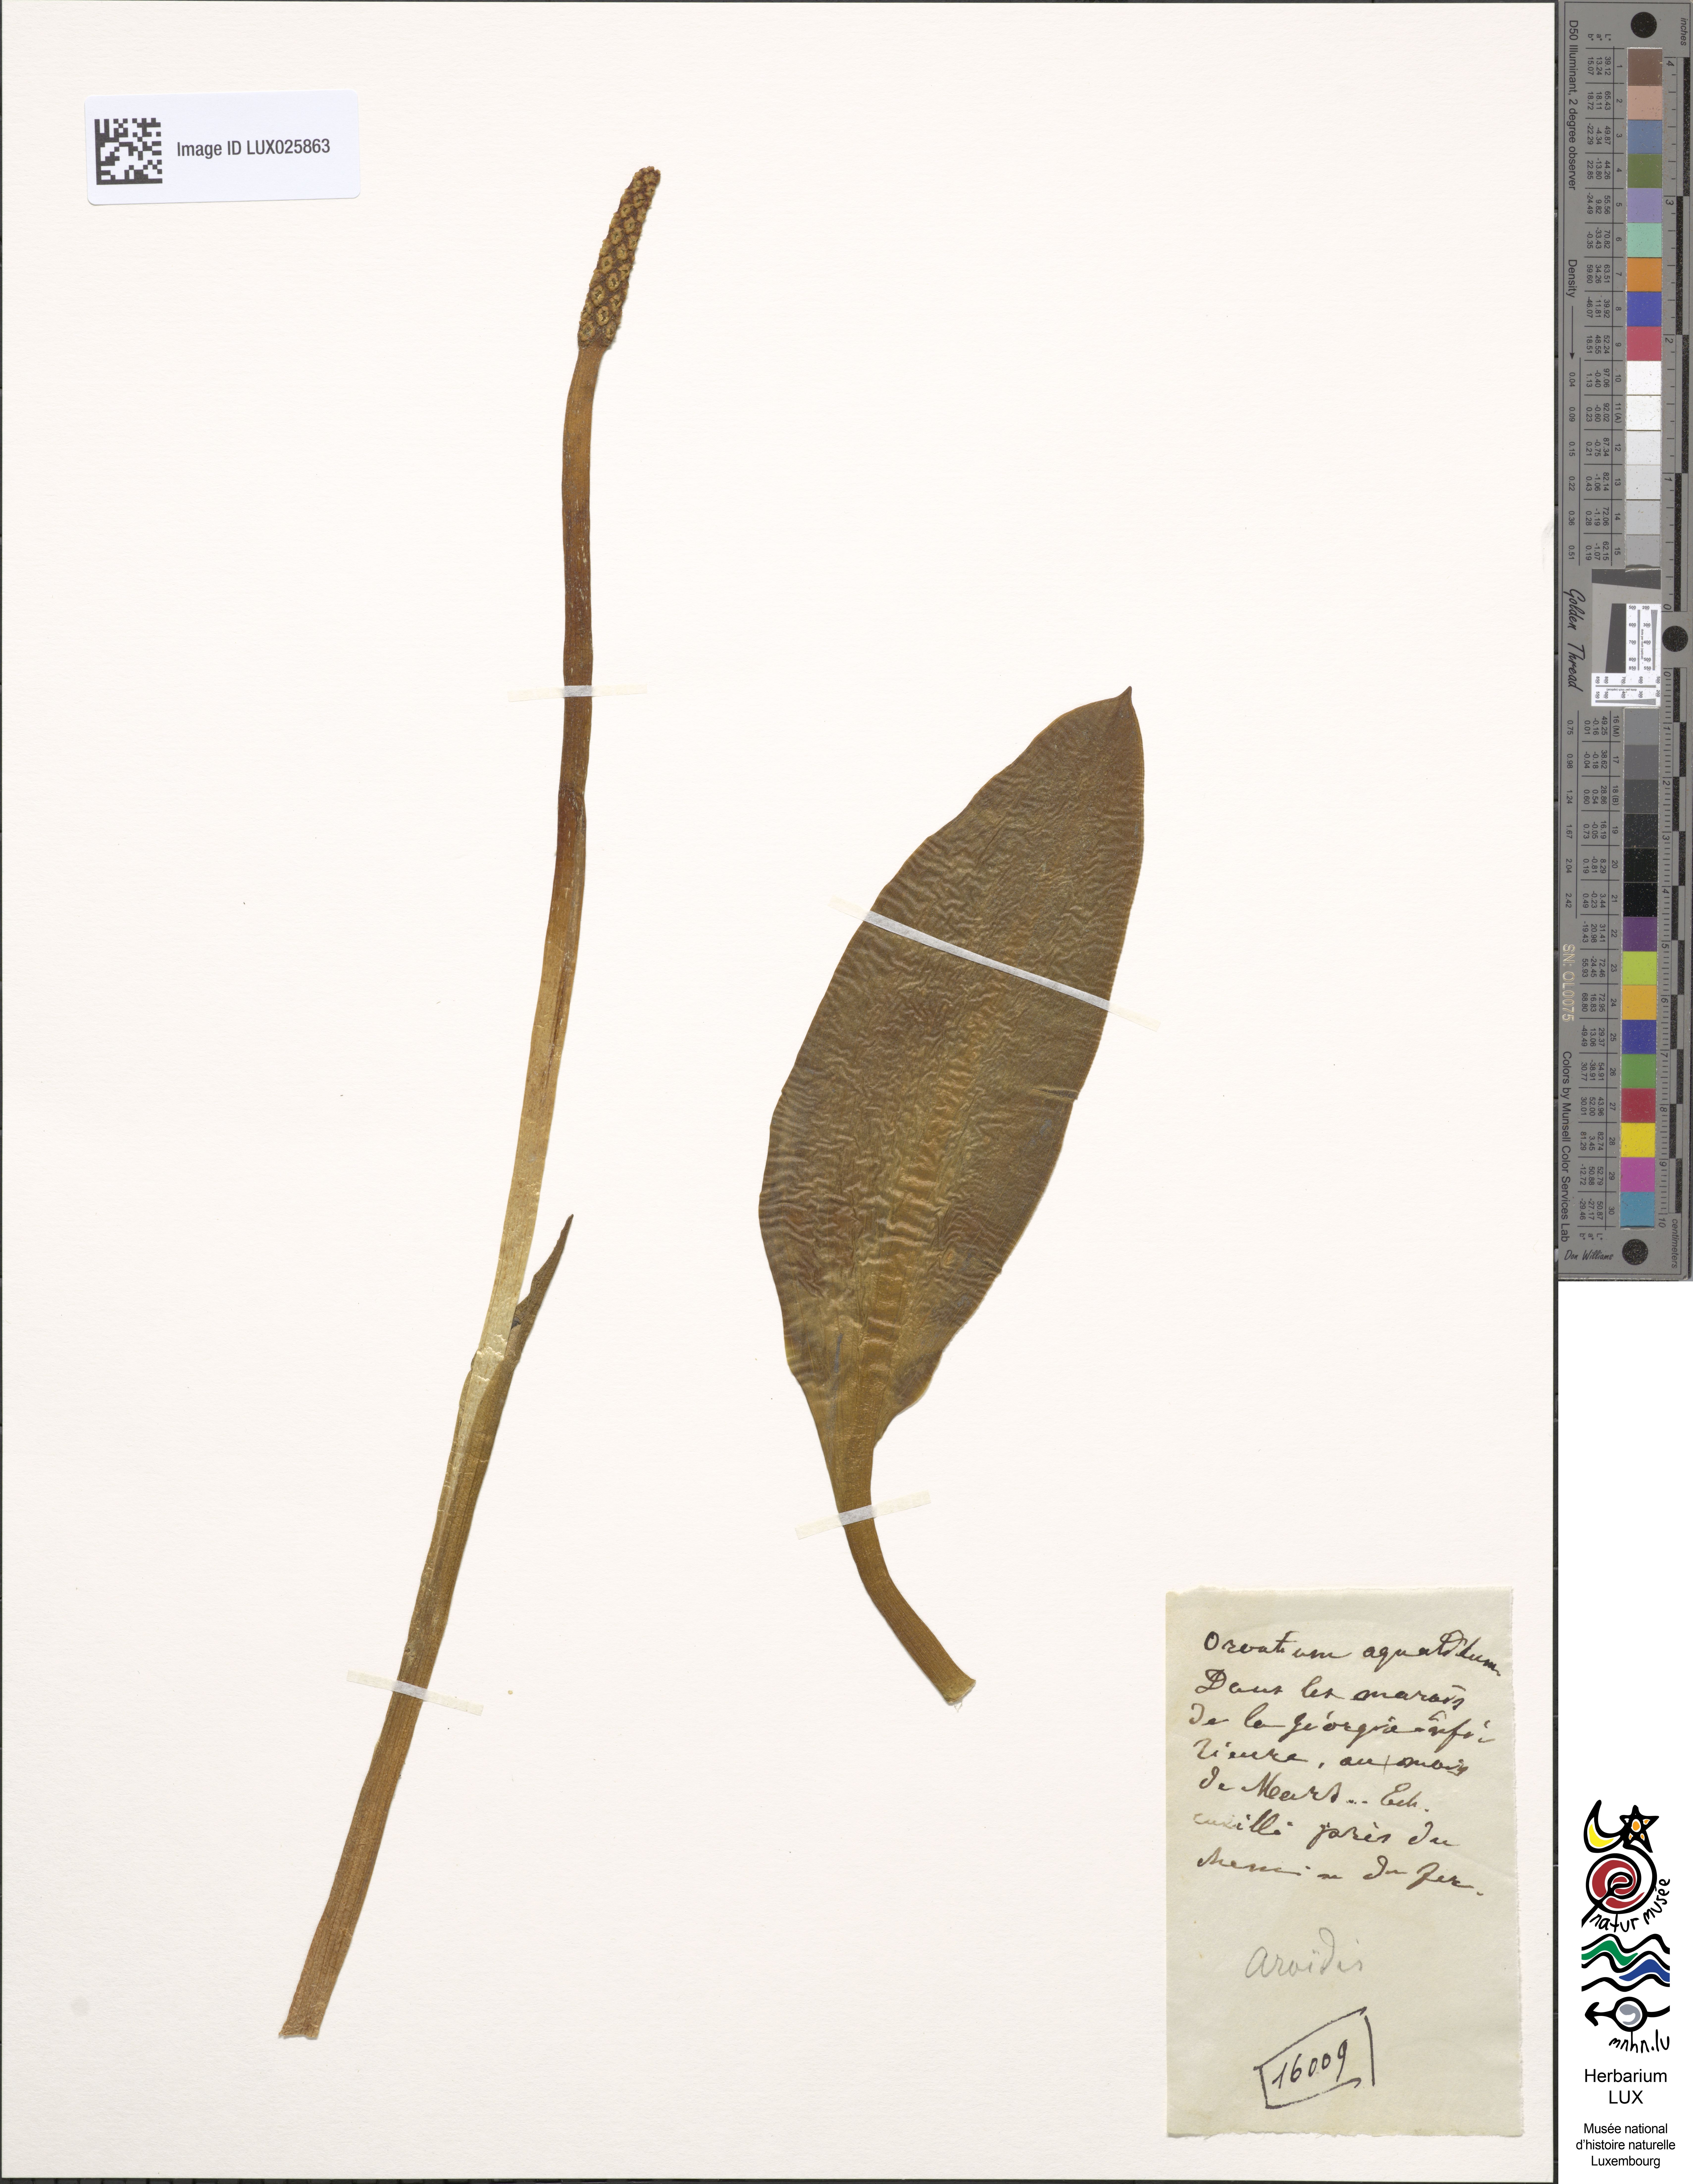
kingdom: Plantae
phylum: Tracheophyta
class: Liliopsida
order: Alismatales
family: Araceae
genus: Orontium
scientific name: Orontium aquaticum
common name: Golden-club
